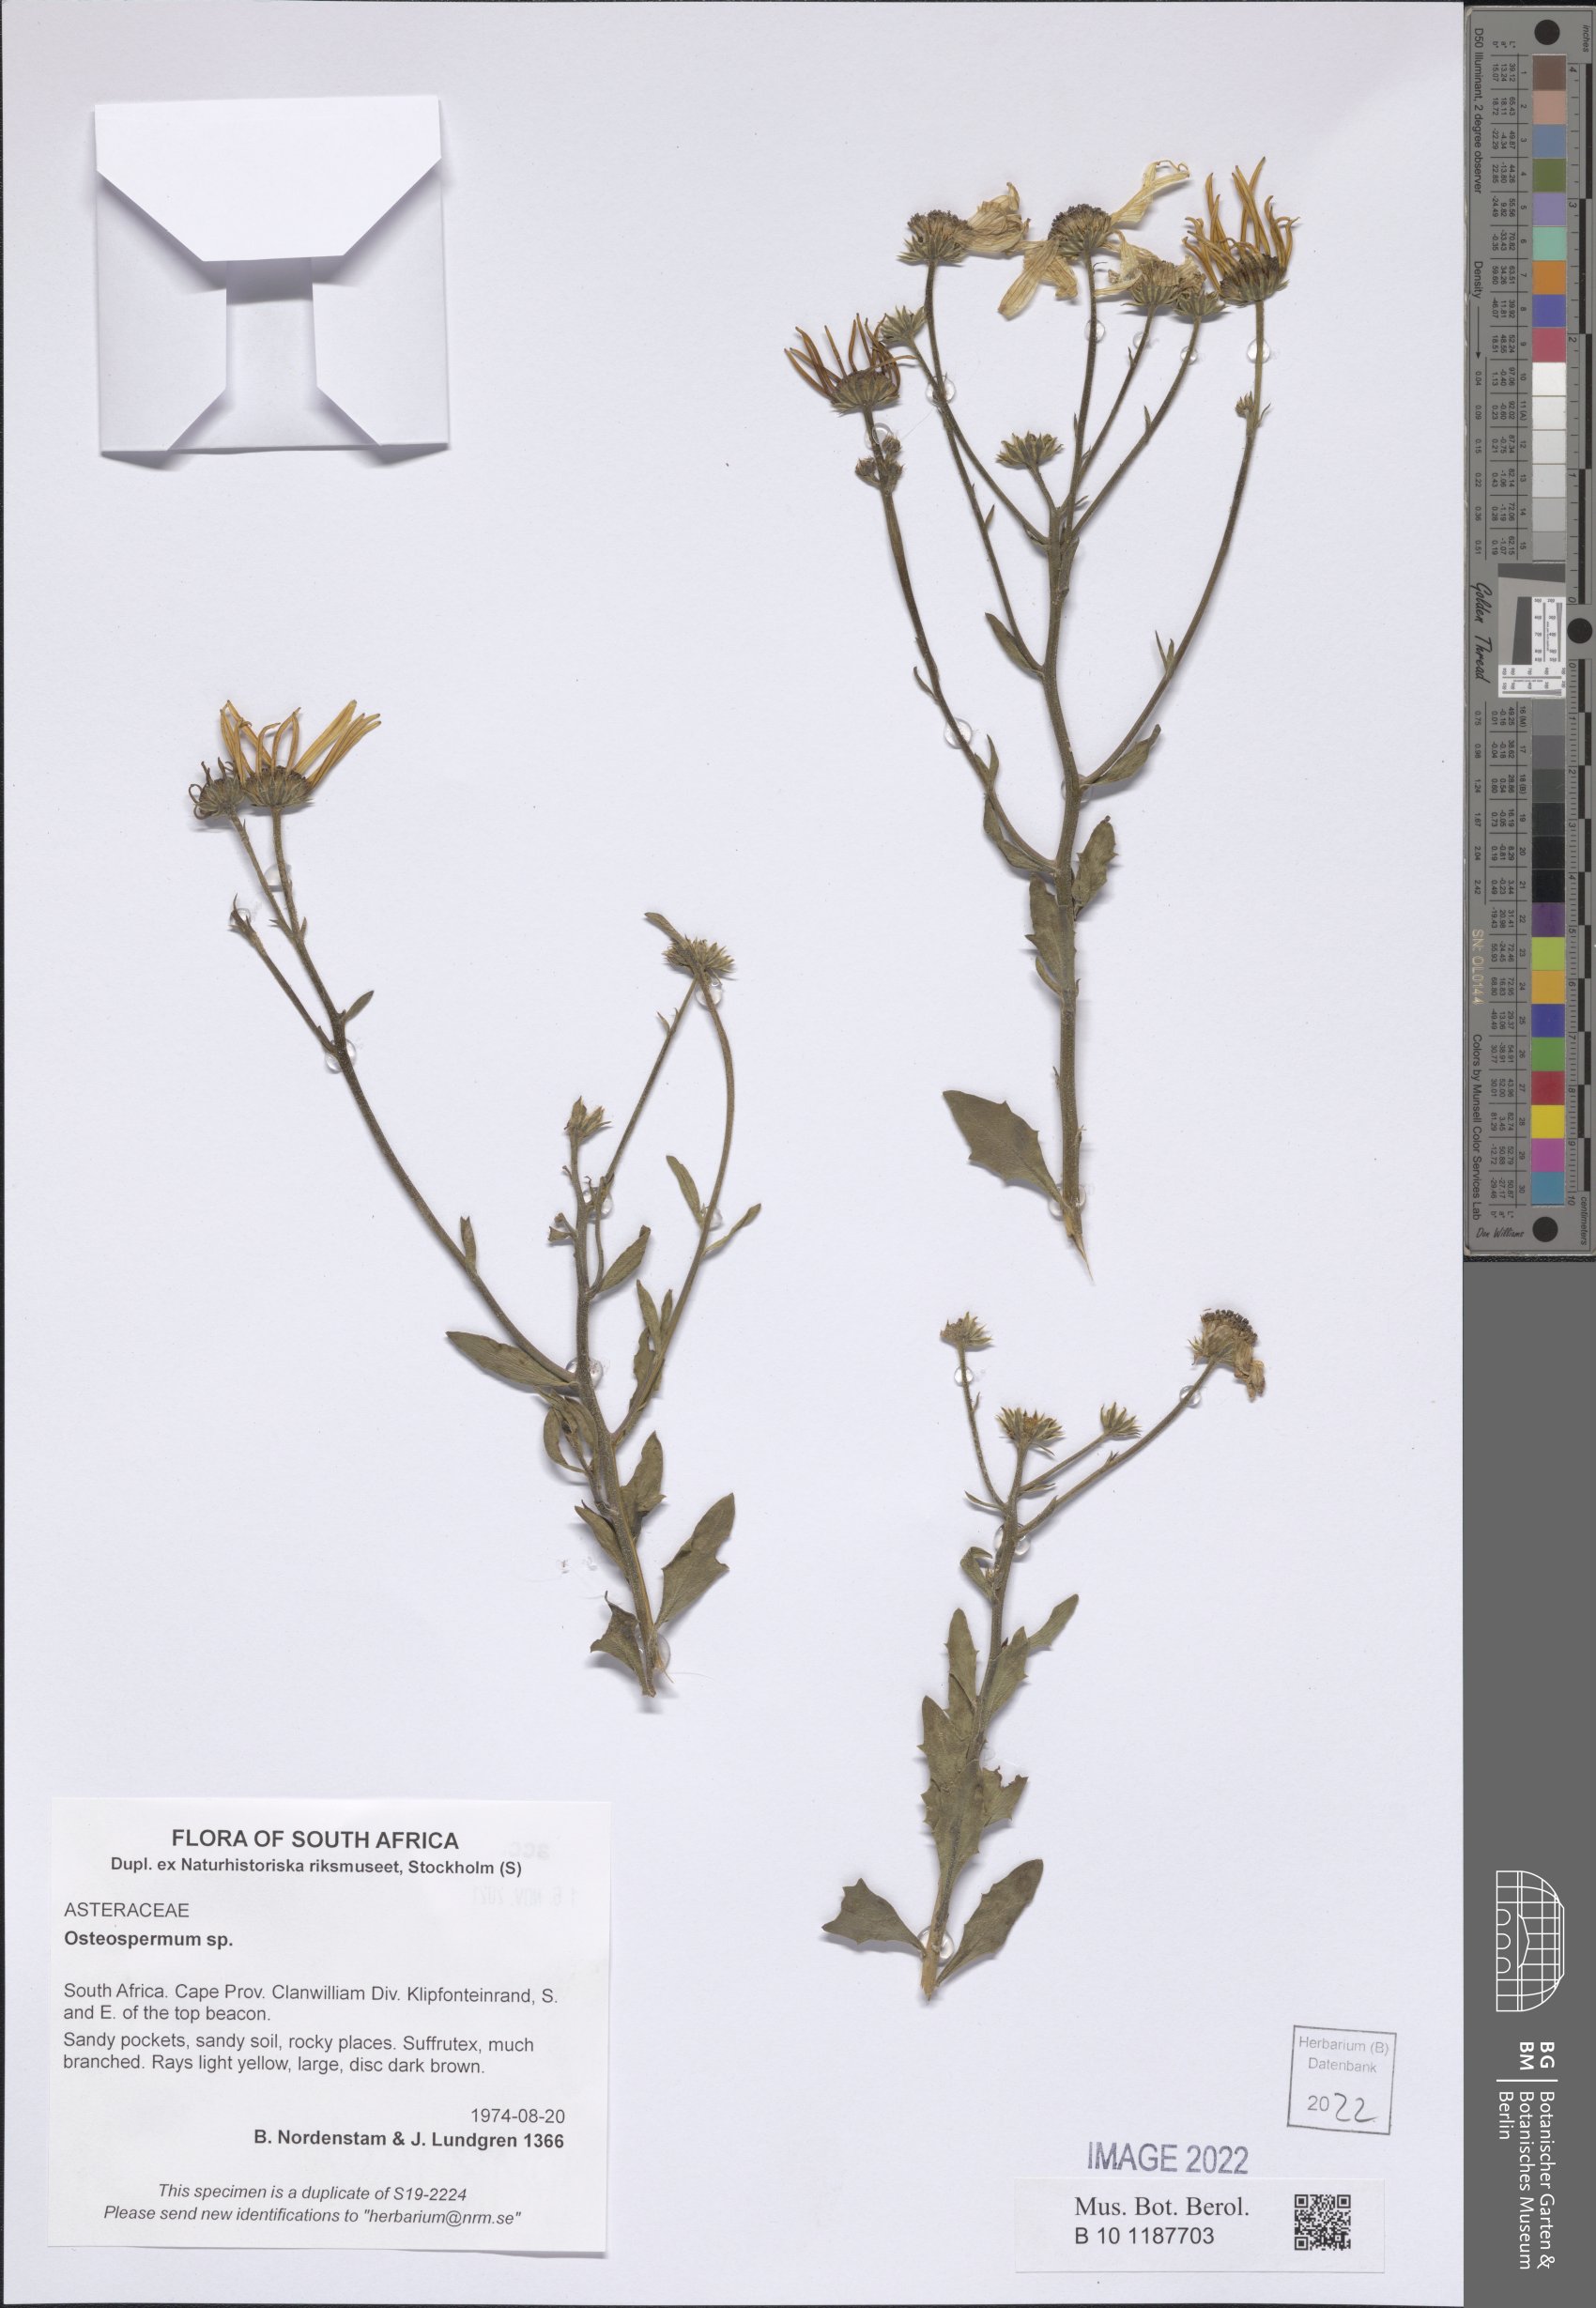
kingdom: Plantae
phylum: Tracheophyta
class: Magnoliopsida
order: Asterales
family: Asteraceae
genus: Osteospermum
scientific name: Osteospermum
